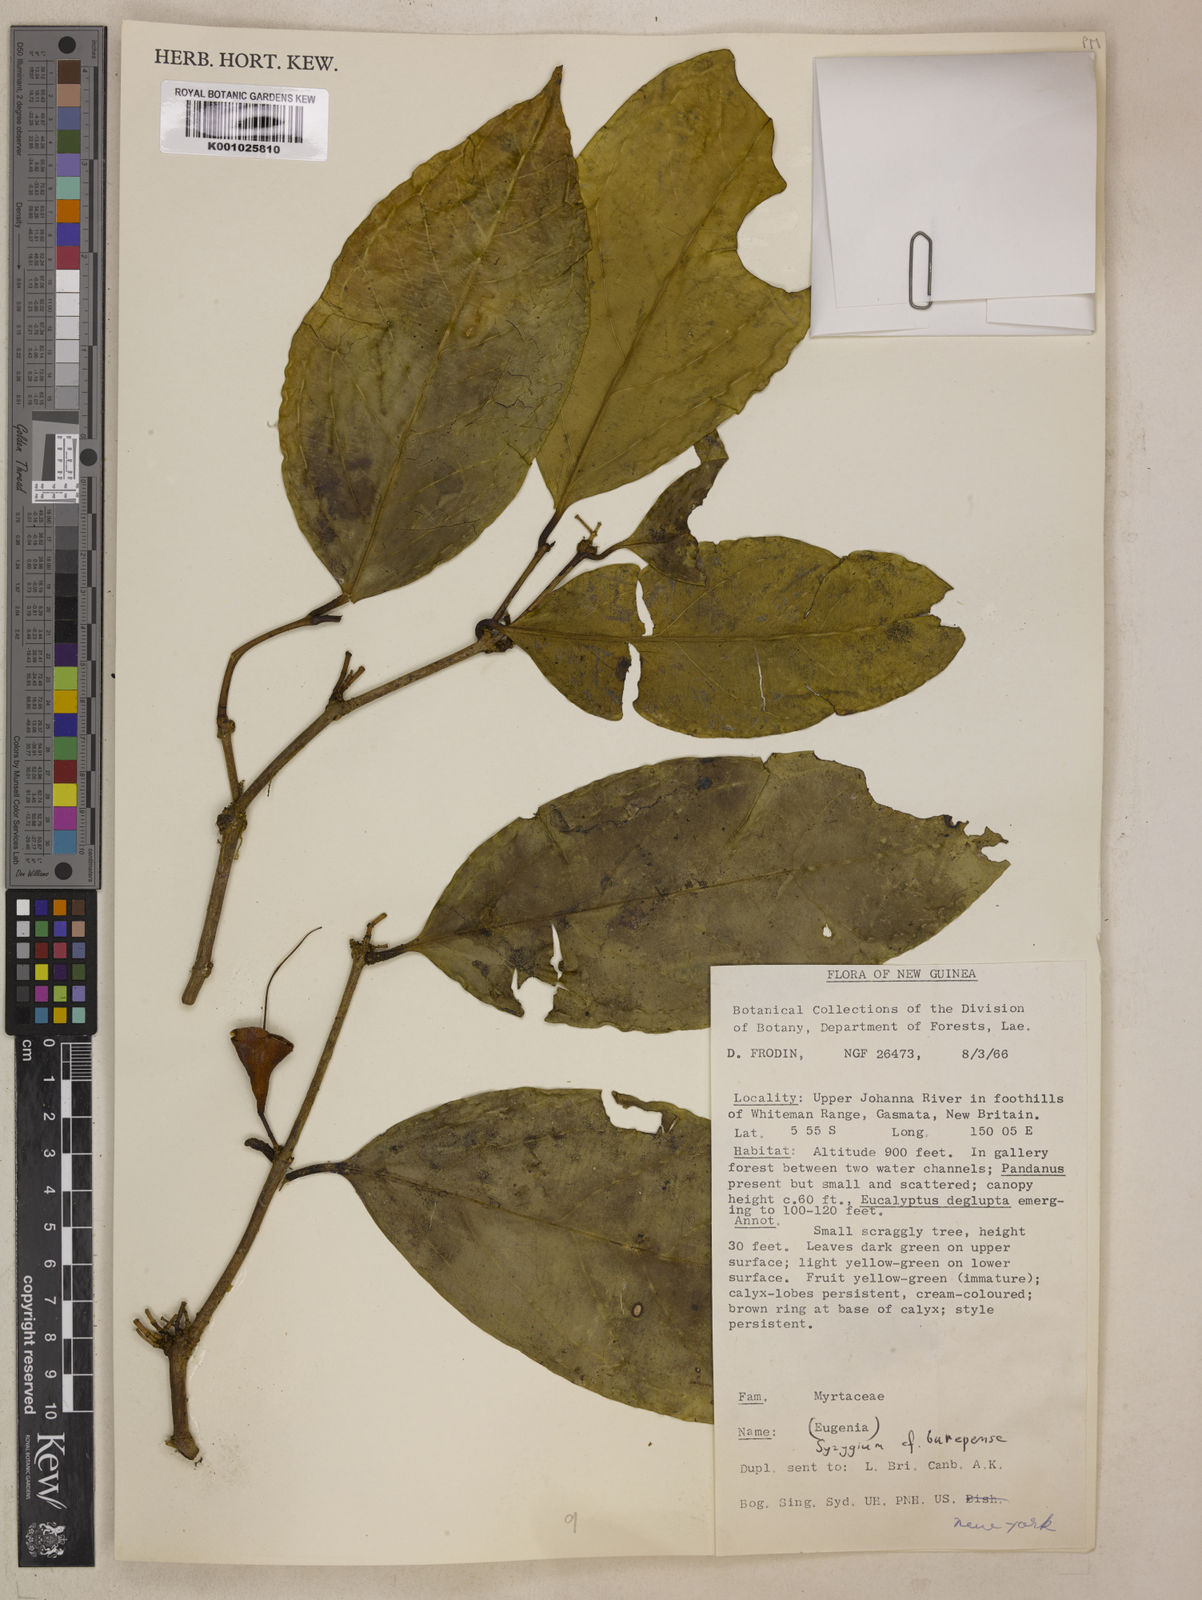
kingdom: Plantae
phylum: Tracheophyta
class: Magnoliopsida
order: Myrtales
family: Myrtaceae
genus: Syzygium
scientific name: Syzygium burepense
